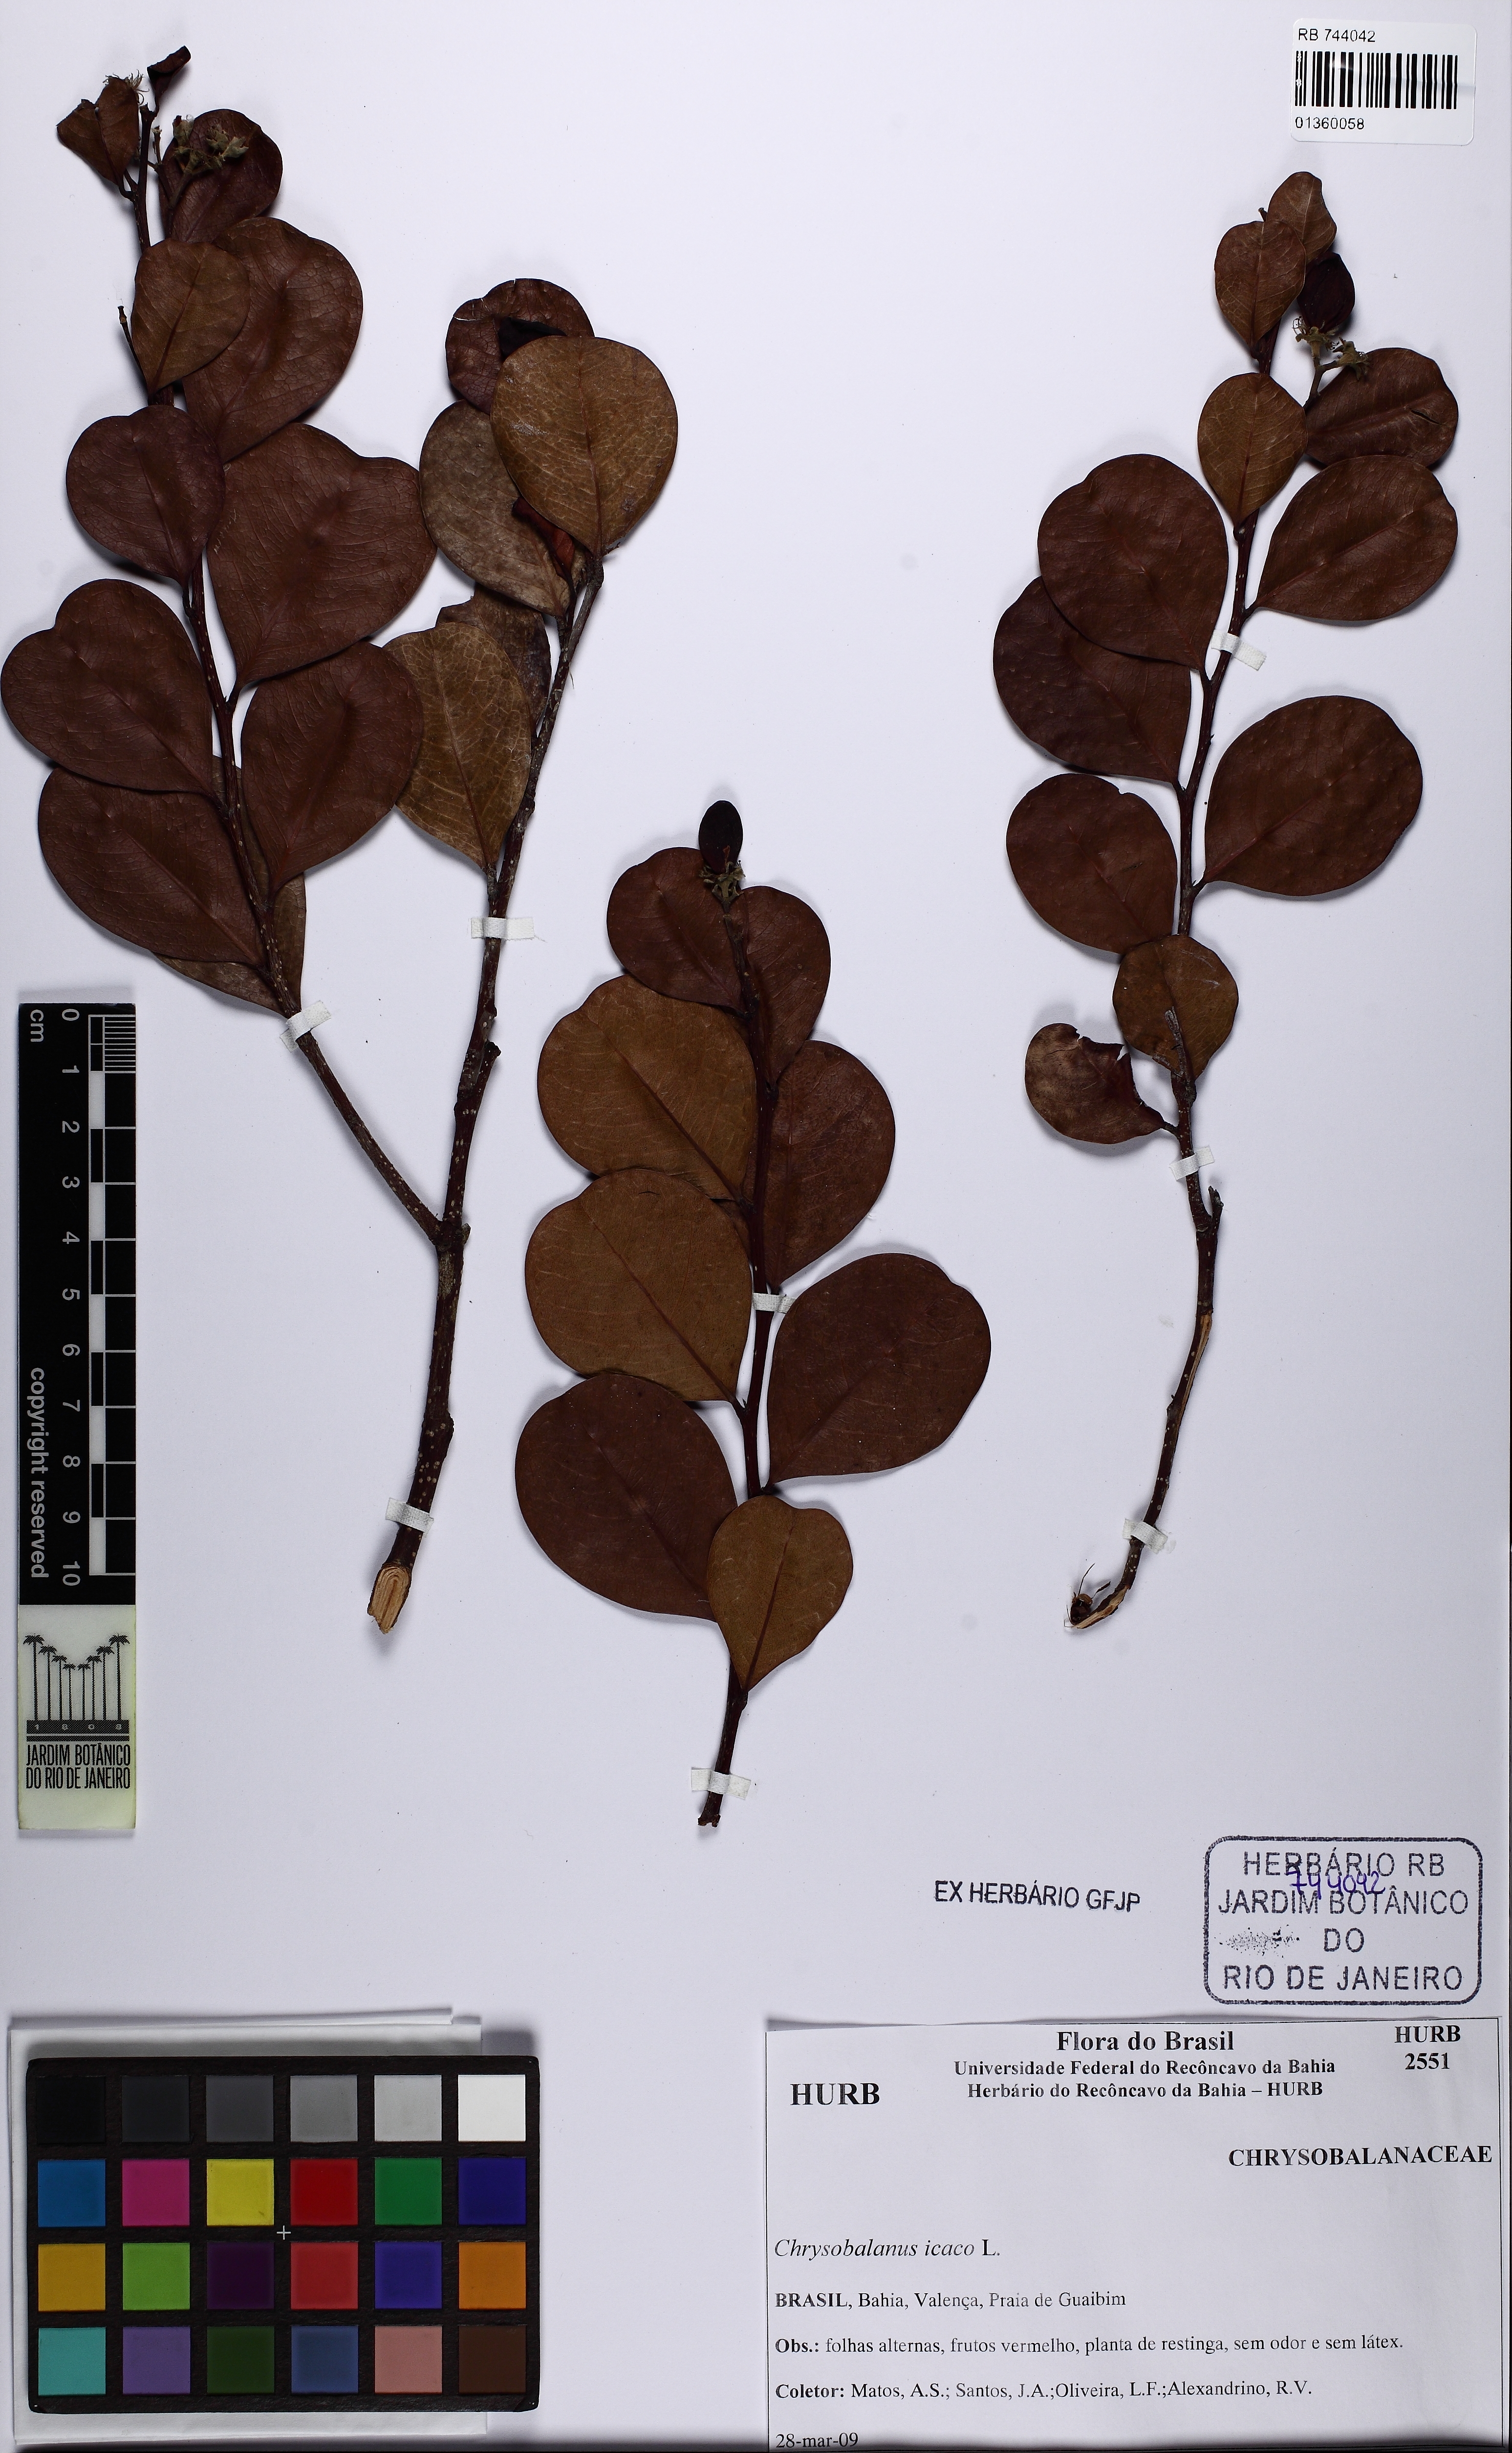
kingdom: Plantae
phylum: Tracheophyta
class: Magnoliopsida
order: Malpighiales
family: Chrysobalanaceae
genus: Chrysobalanus
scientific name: Chrysobalanus icaco
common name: Coco plum
